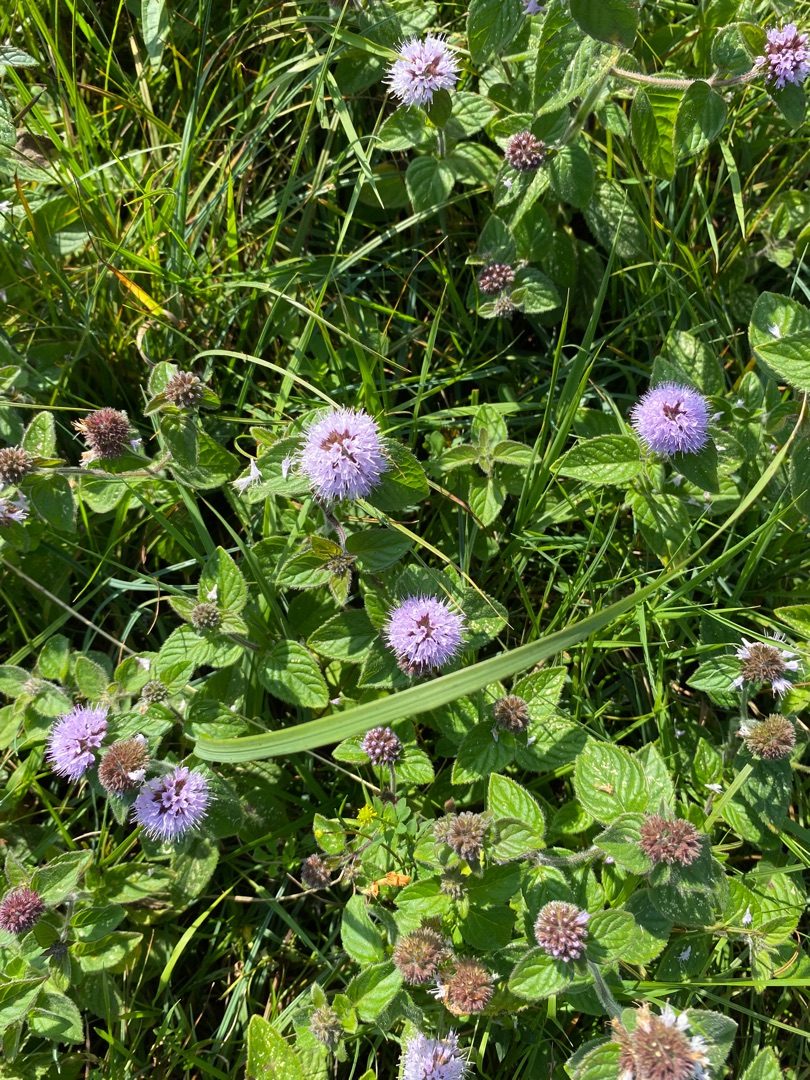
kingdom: Plantae
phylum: Tracheophyta
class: Magnoliopsida
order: Lamiales
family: Lamiaceae
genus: Mentha
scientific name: Mentha aquatica
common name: Vand-mynte
